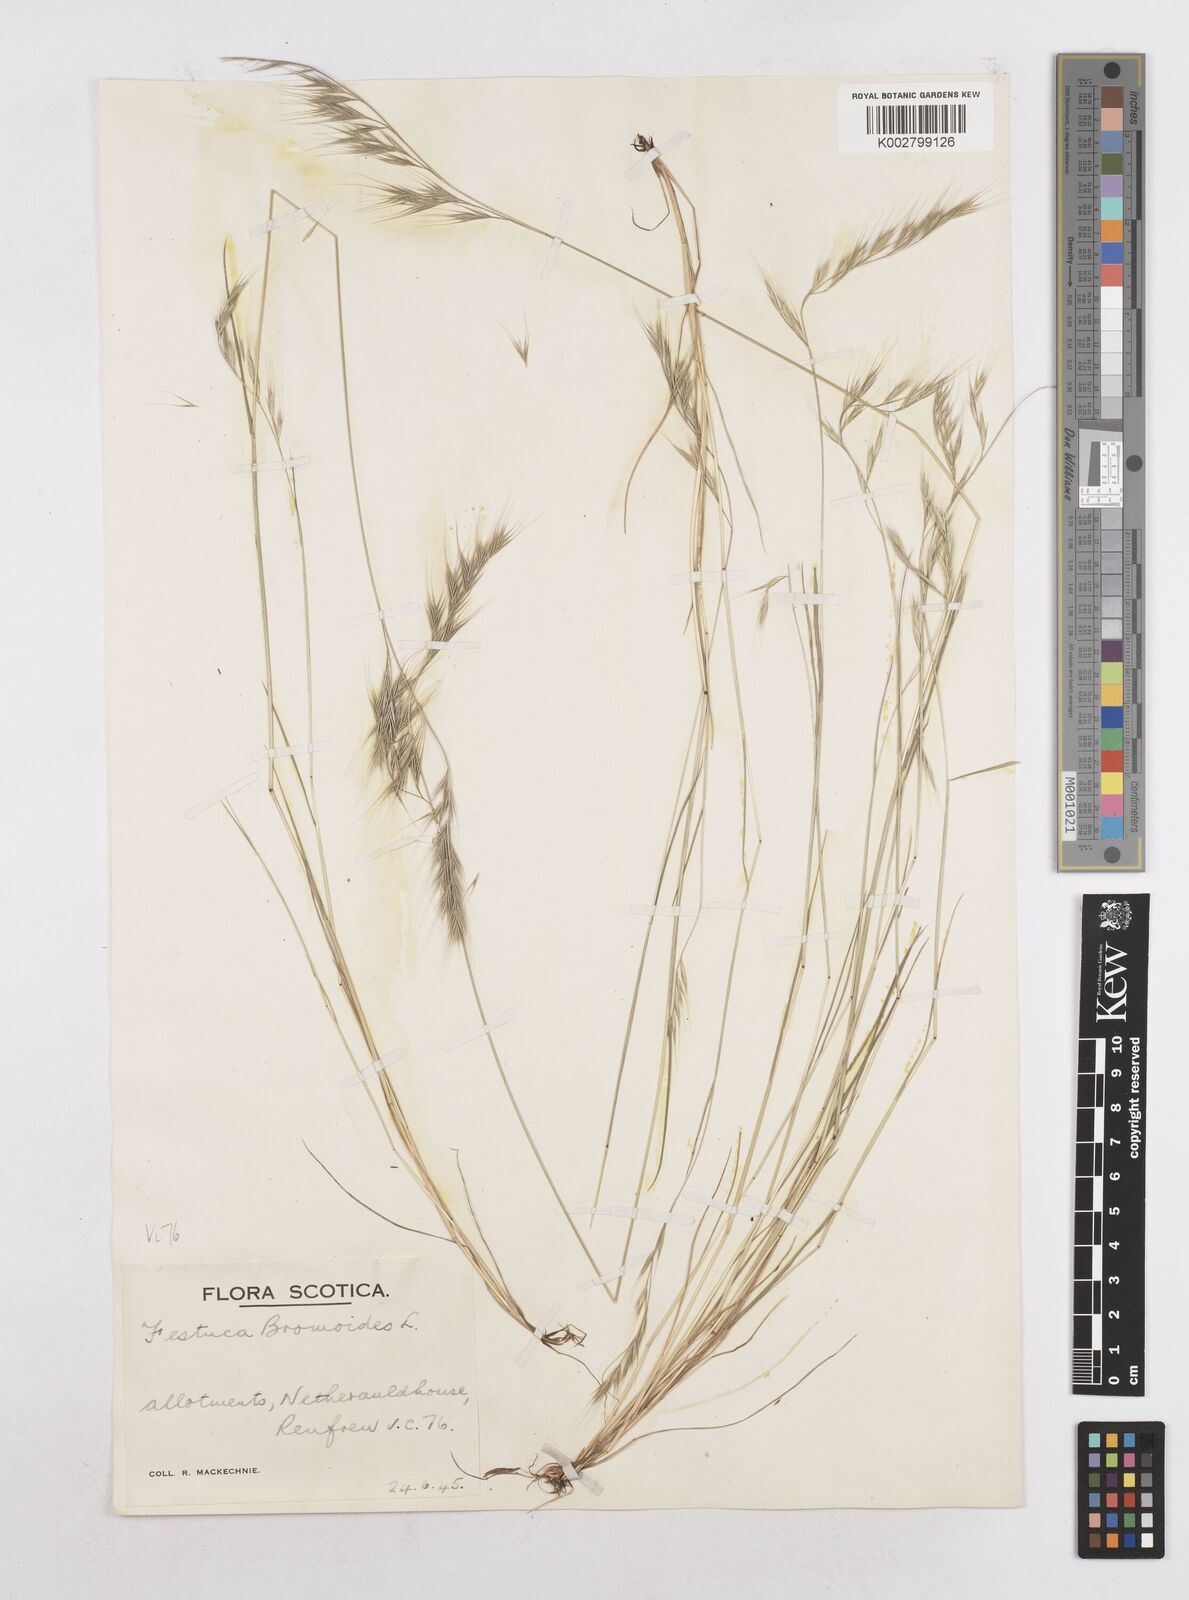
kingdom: Plantae
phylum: Tracheophyta
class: Liliopsida
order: Poales
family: Poaceae
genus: Festuca
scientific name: Festuca bromoides
